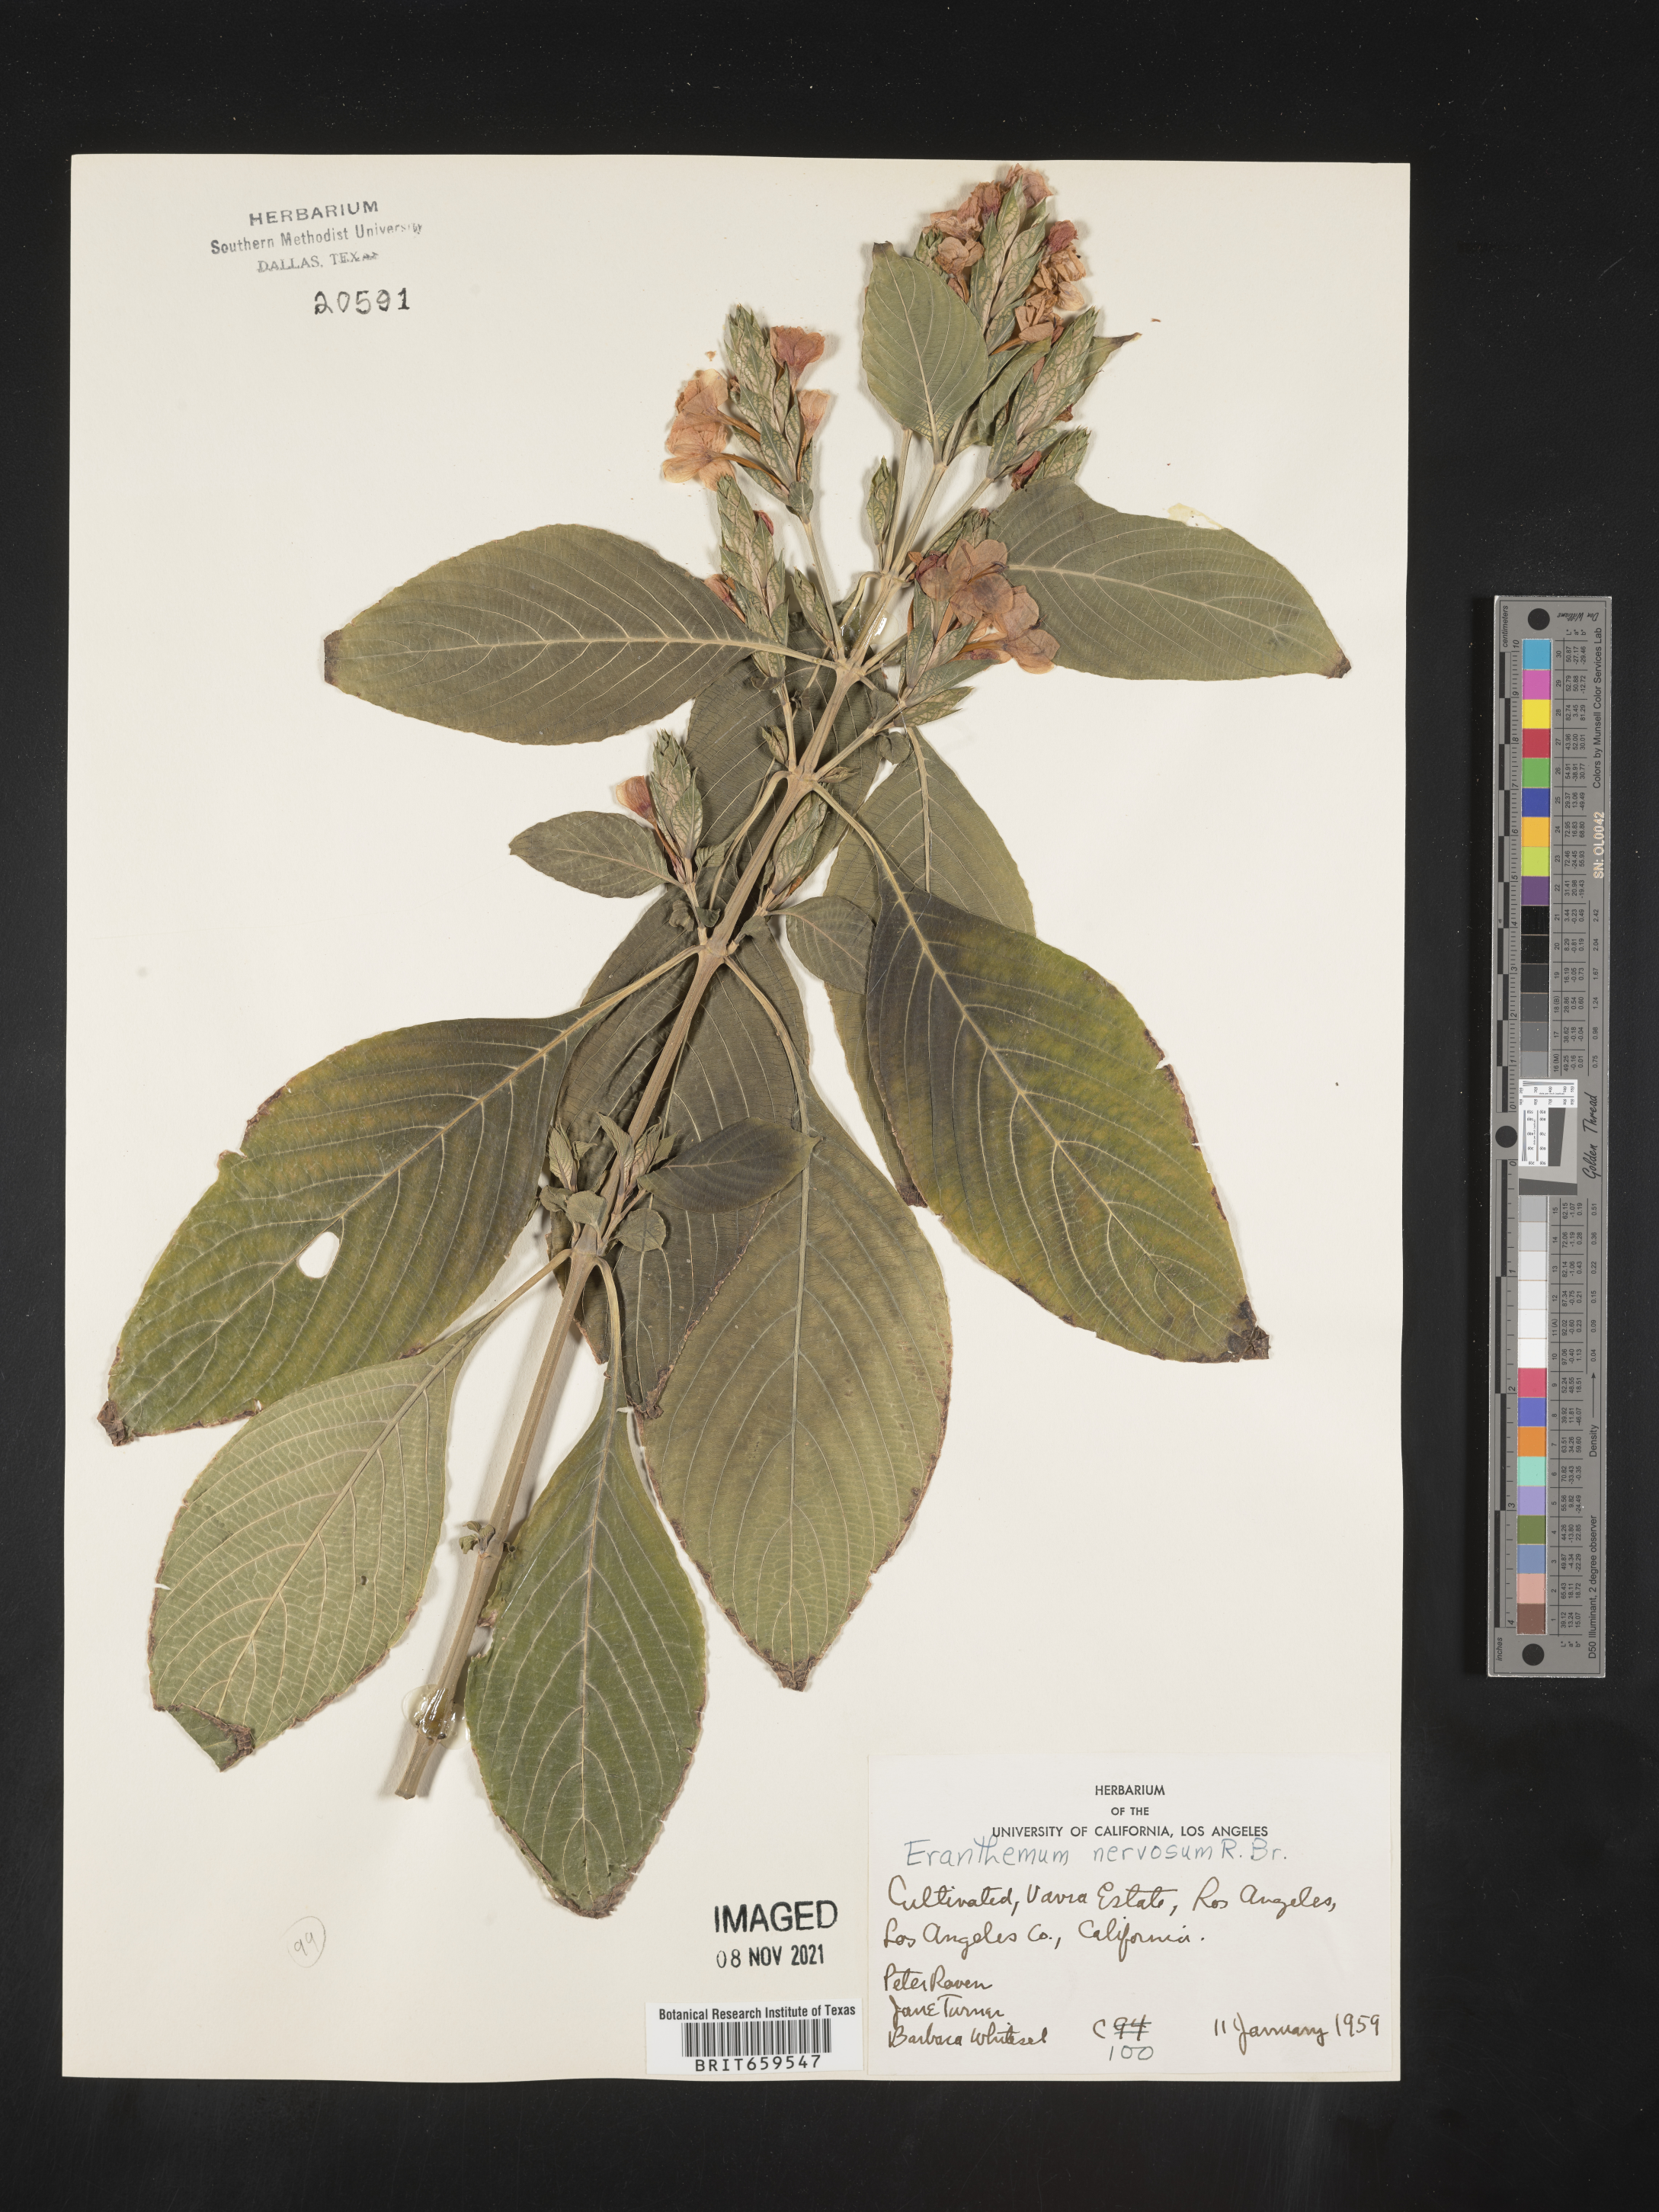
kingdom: Plantae
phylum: Tracheophyta
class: Magnoliopsida
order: Lamiales
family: Acanthaceae
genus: Eranthemum
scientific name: Eranthemum
